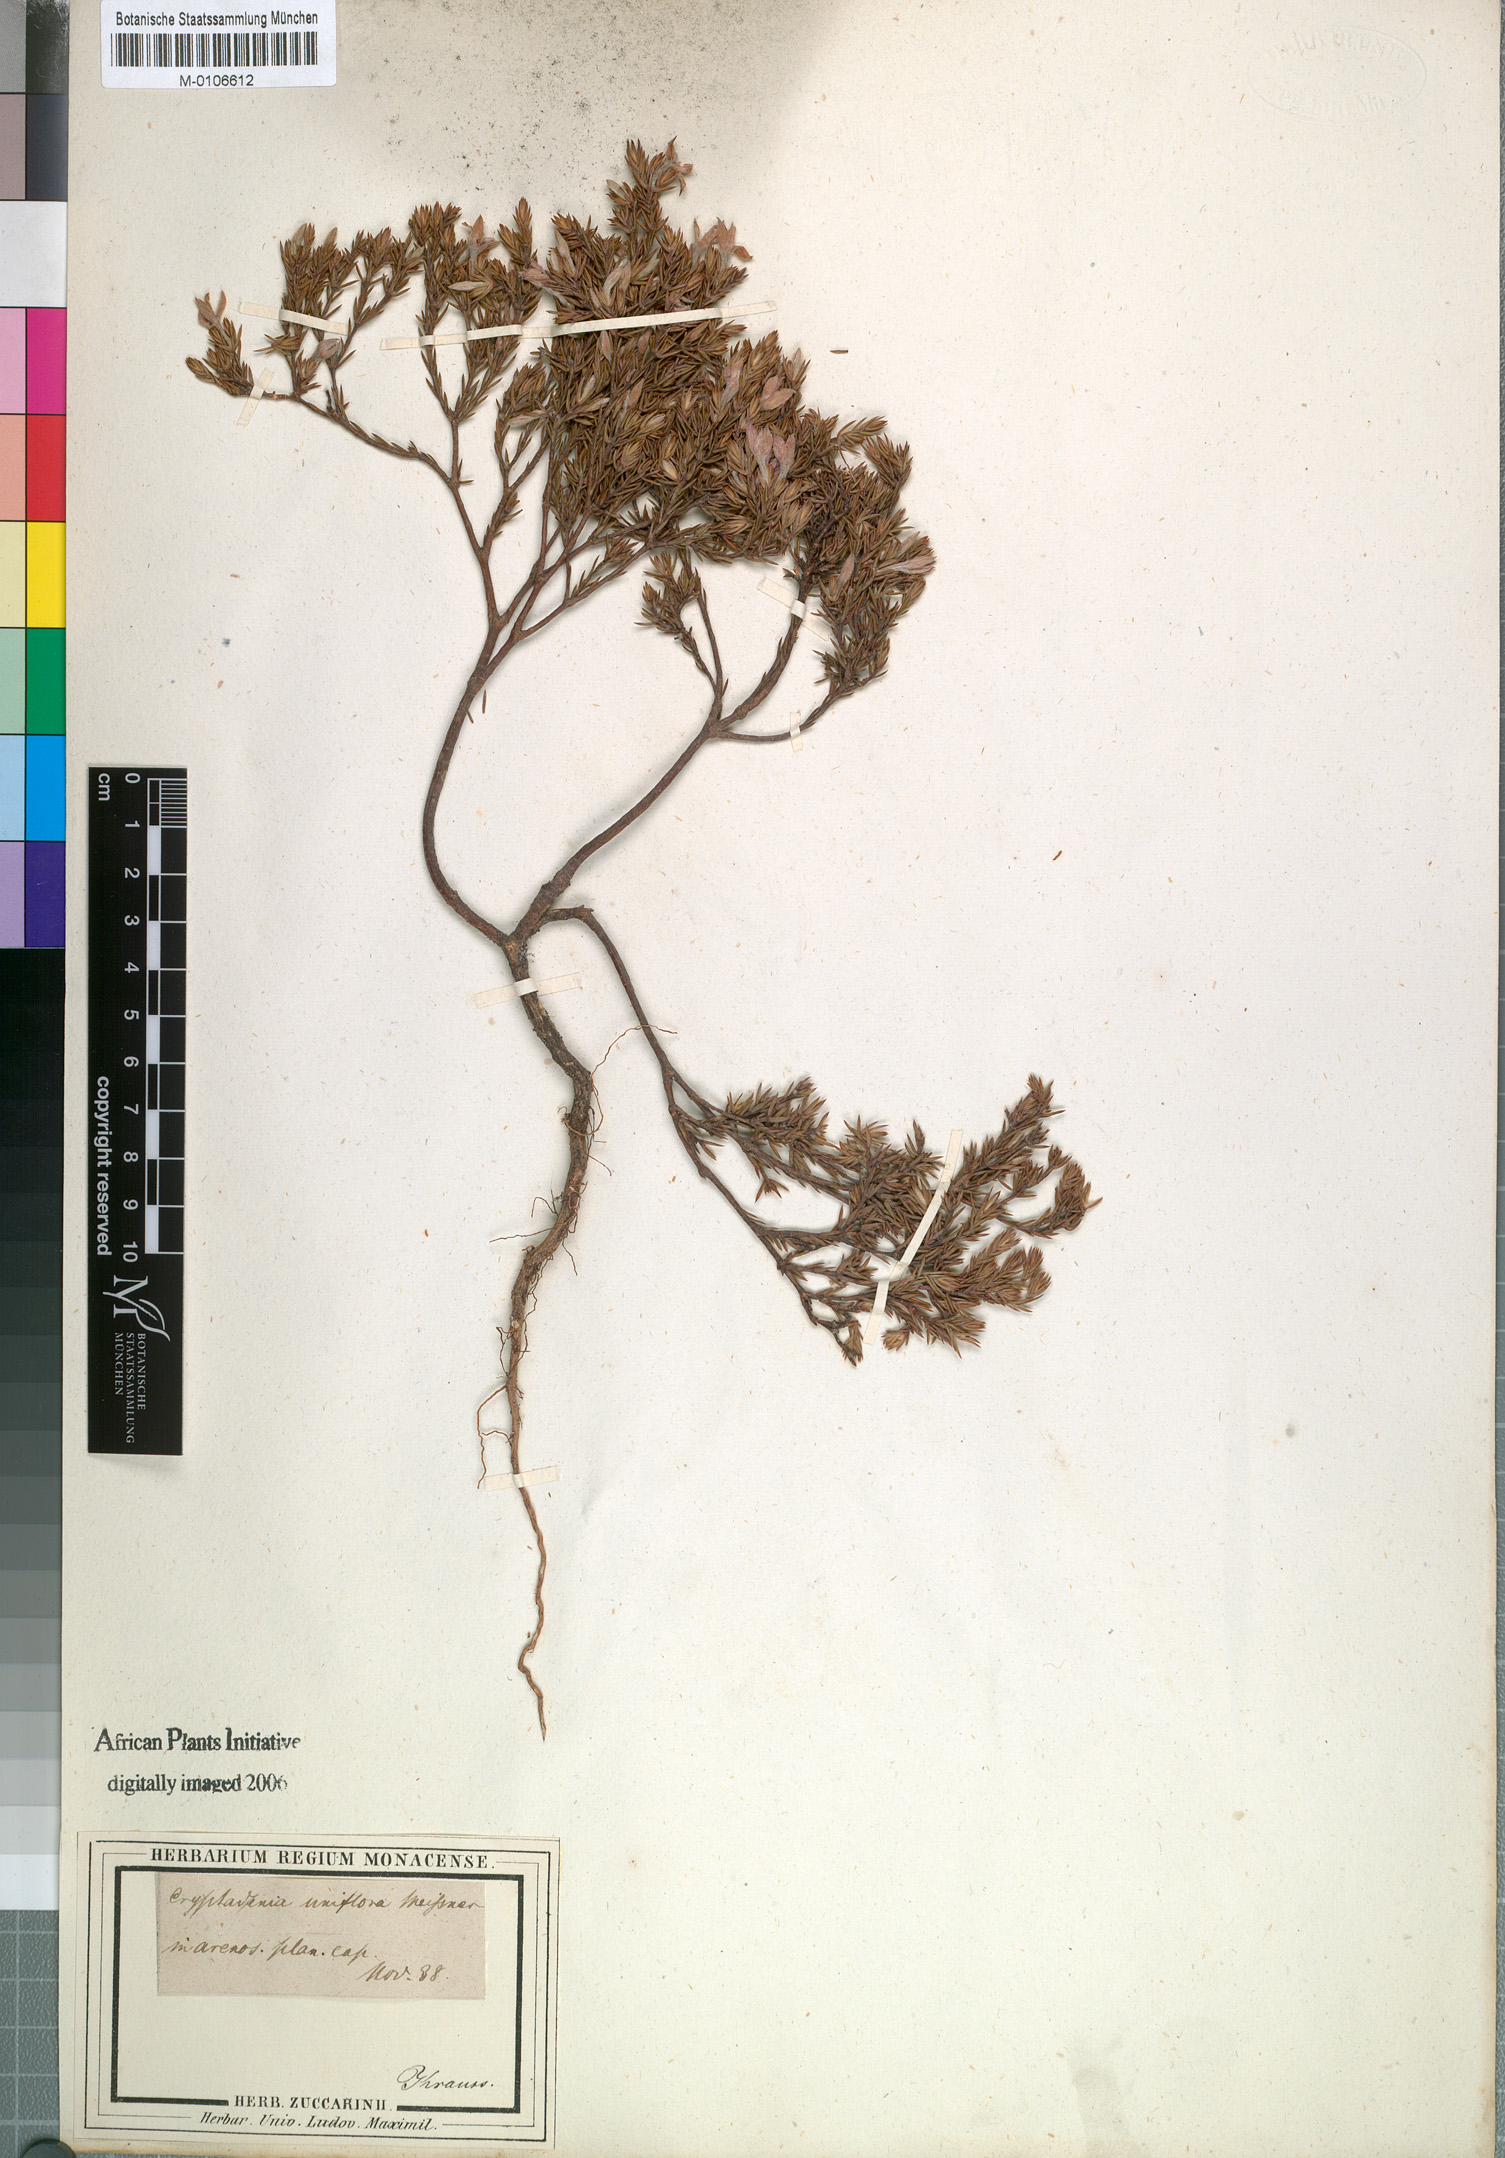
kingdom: Plantae
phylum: Tracheophyta
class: Magnoliopsida
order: Malvales
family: Thymelaeaceae
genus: Lachnaea
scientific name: Lachnaea uniflora
